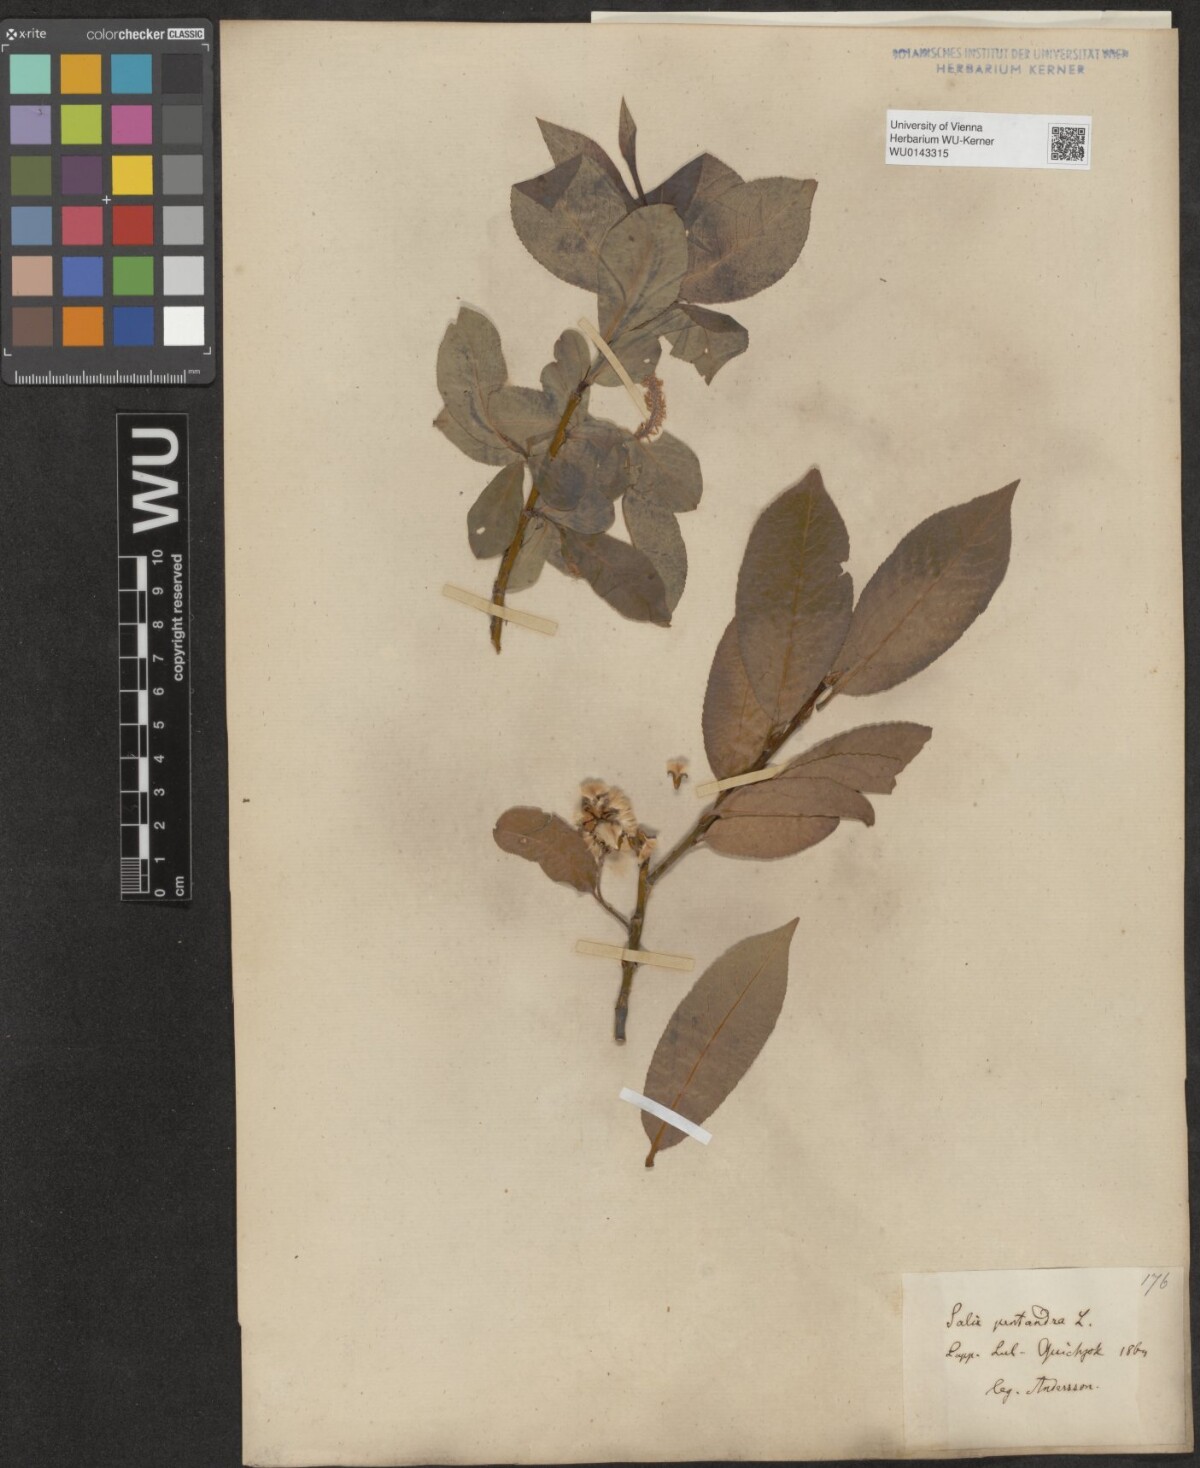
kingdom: Plantae
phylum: Tracheophyta
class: Magnoliopsida
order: Malpighiales
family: Salicaceae
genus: Salix
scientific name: Salix pentandra
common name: Bay willow
